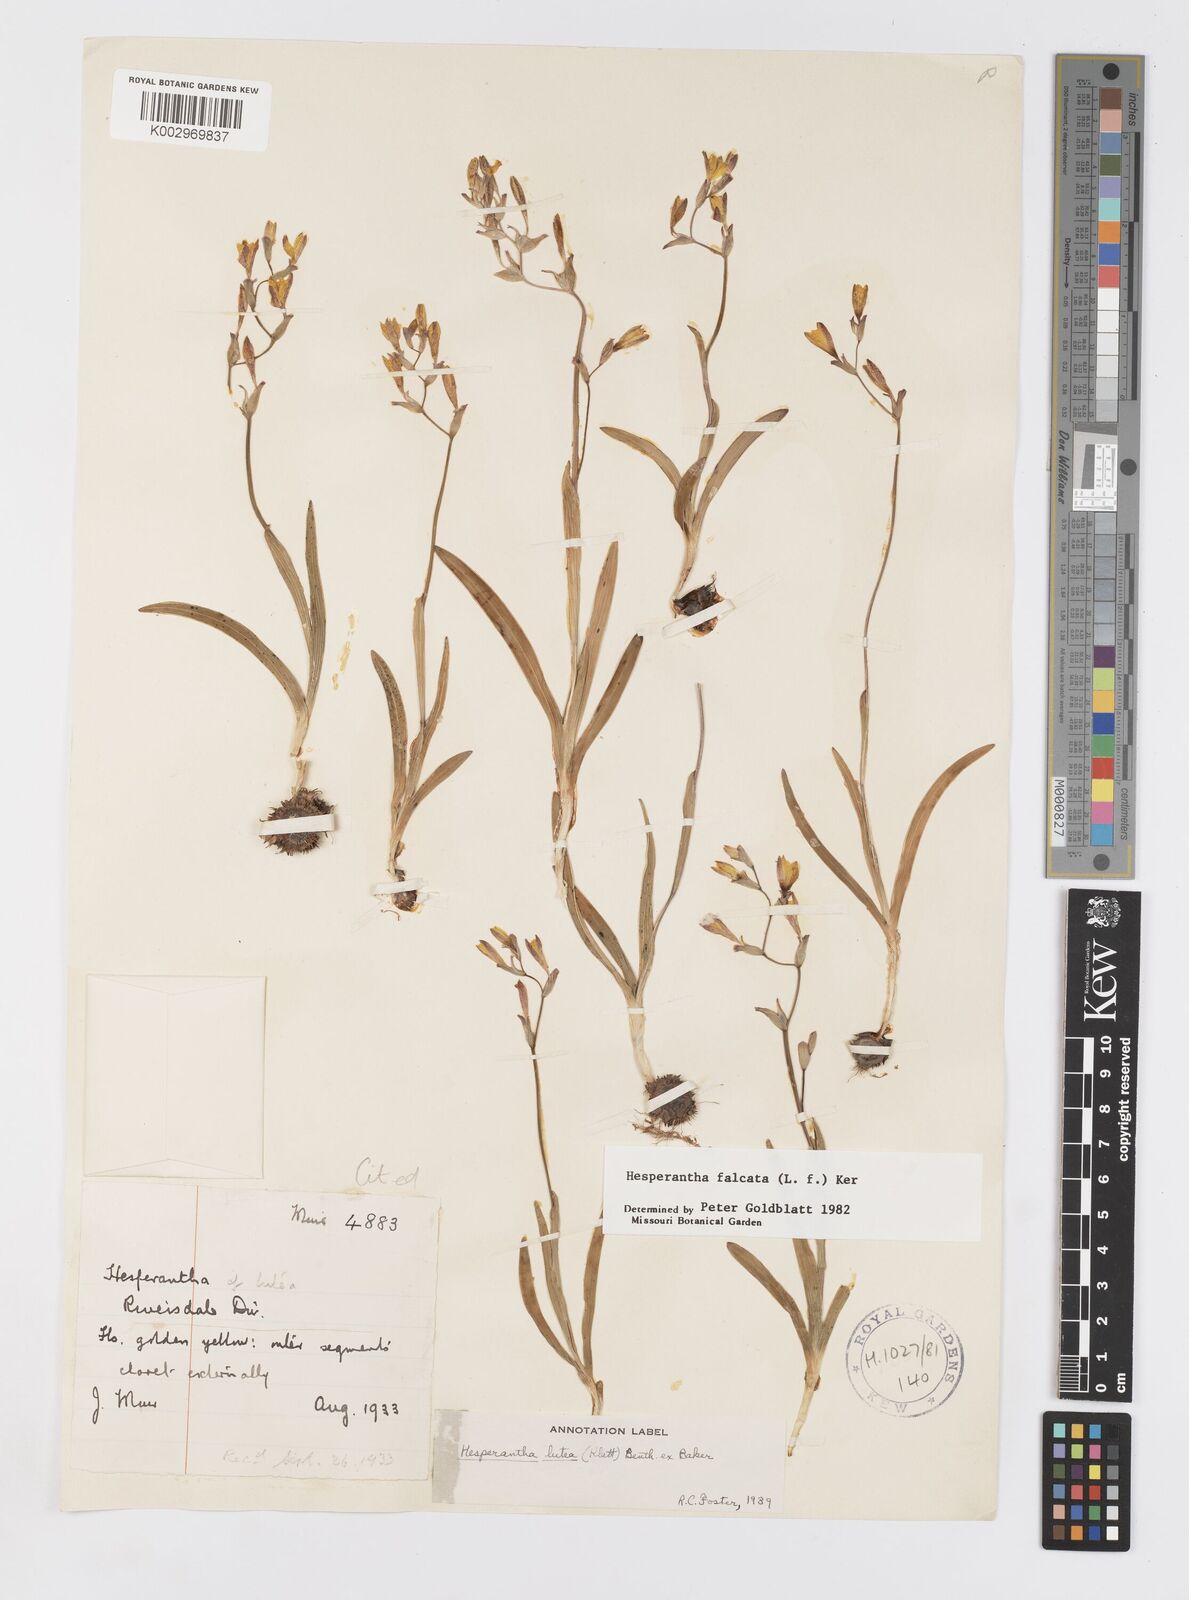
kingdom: Plantae
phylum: Tracheophyta
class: Liliopsida
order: Asparagales
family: Iridaceae
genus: Hesperantha
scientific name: Hesperantha falcata
